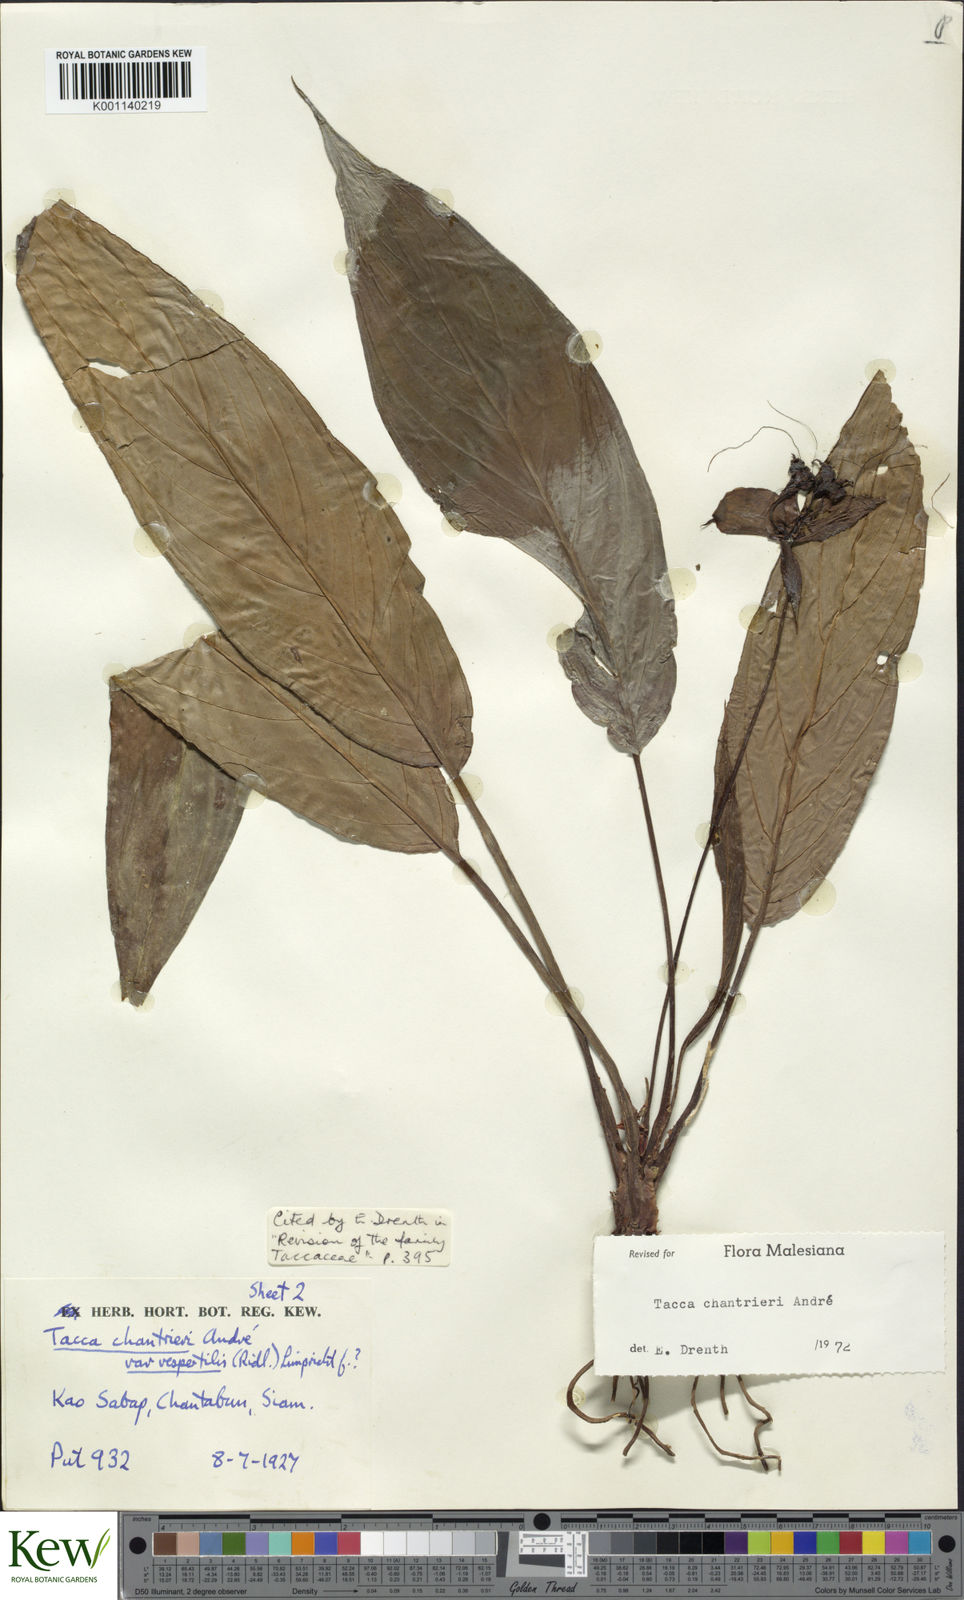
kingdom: Plantae
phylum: Tracheophyta
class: Liliopsida
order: Dioscoreales
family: Dioscoreaceae
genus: Tacca
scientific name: Tacca
